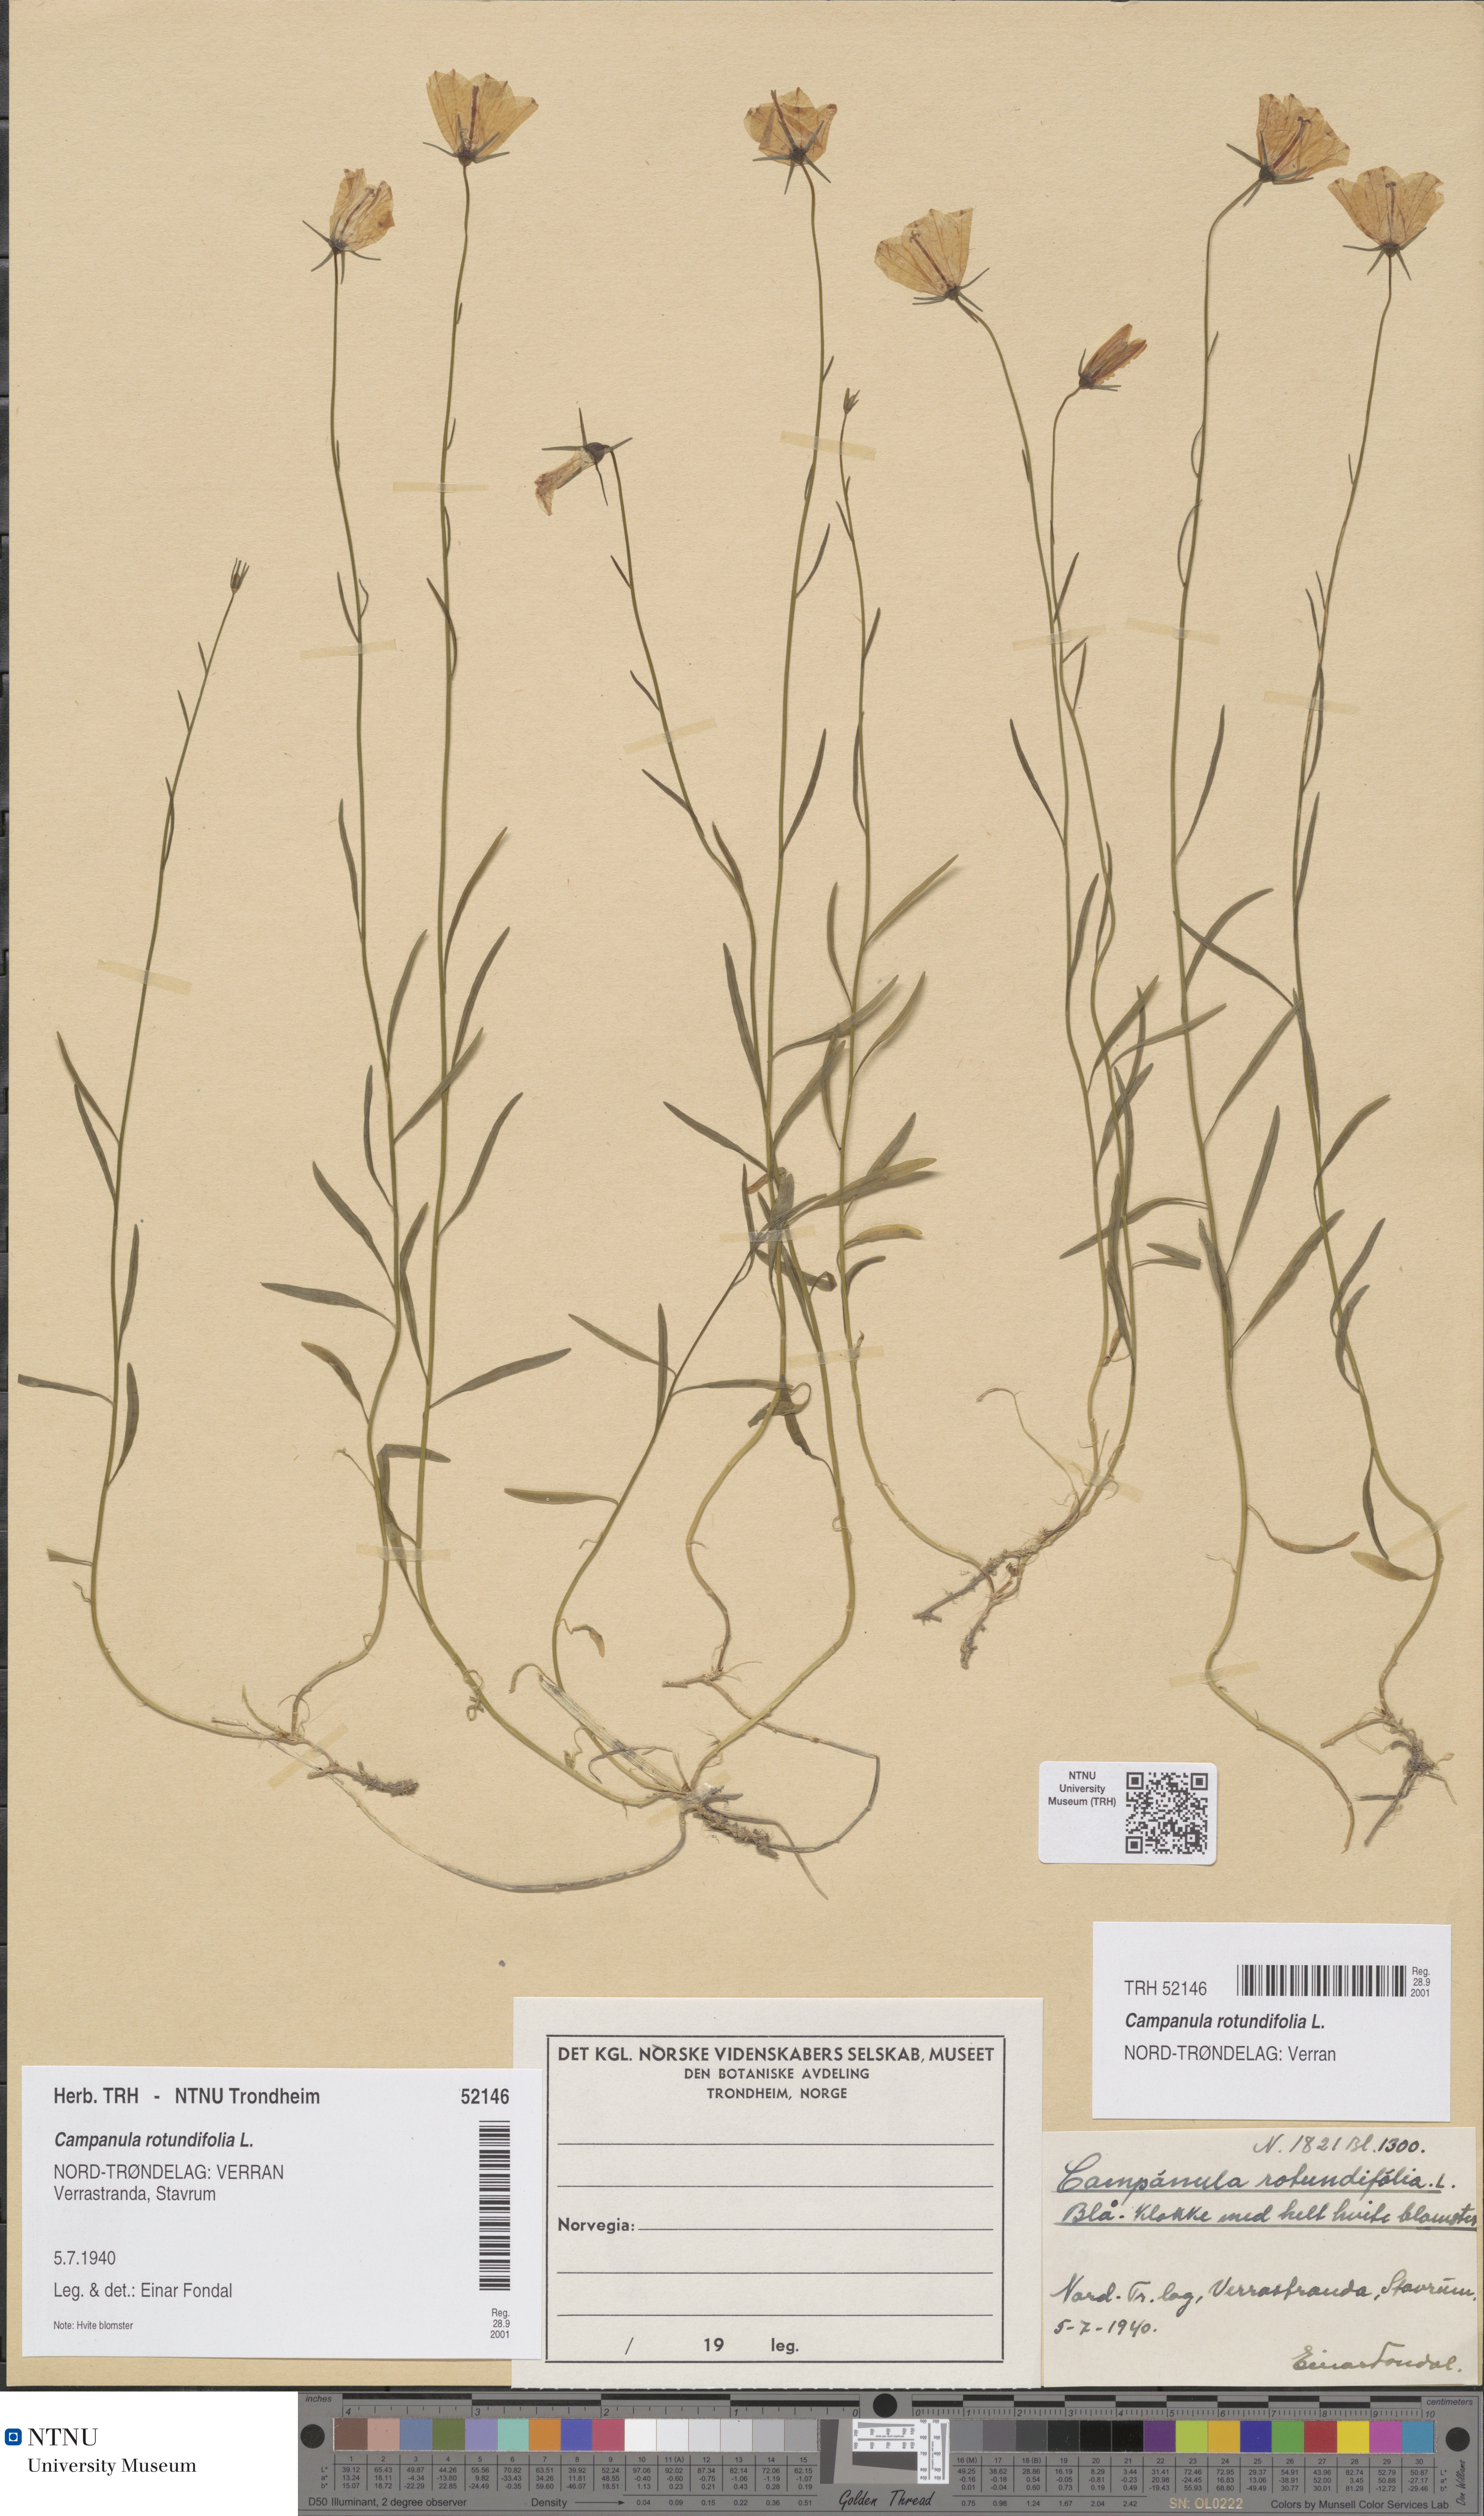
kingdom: Plantae
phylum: Tracheophyta
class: Magnoliopsida
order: Asterales
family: Campanulaceae
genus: Campanula
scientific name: Campanula rotundifolia
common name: Harebell
